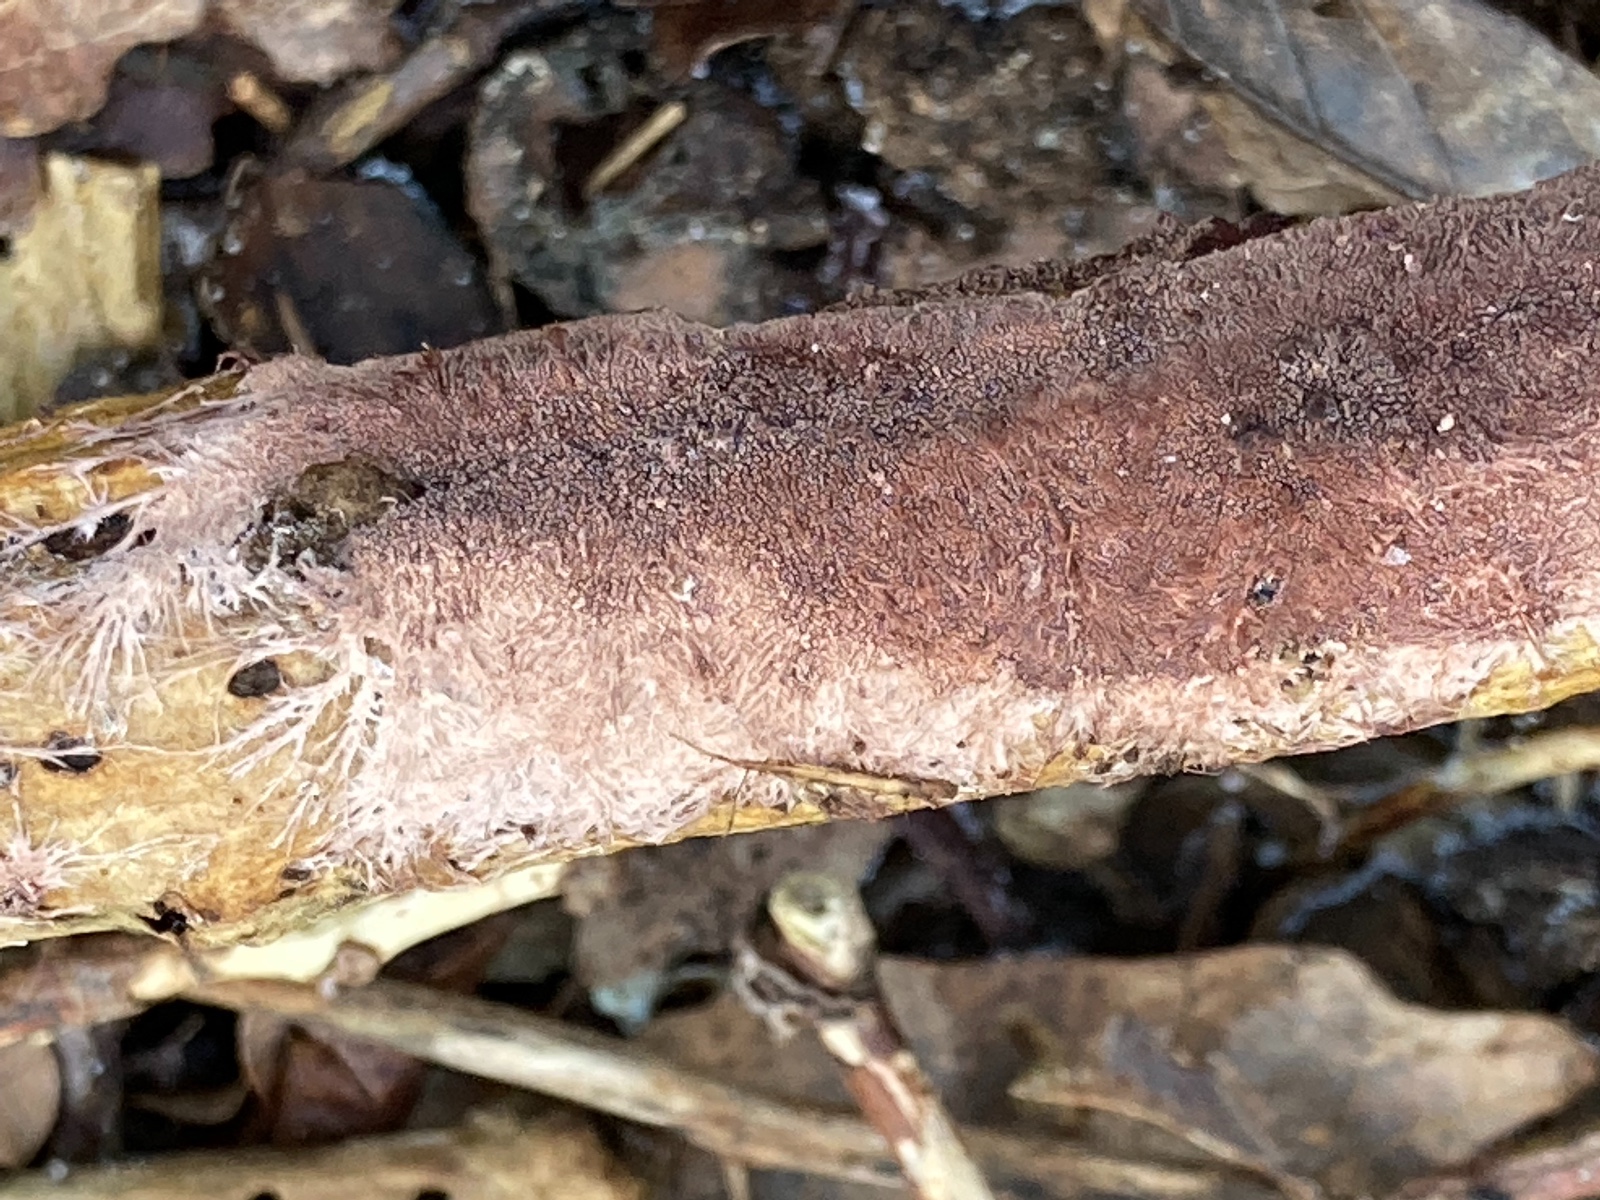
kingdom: Fungi
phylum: Basidiomycota
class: Agaricomycetes
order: Polyporales
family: Steccherinaceae
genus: Steccherinum
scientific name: Steccherinum fimbriatum
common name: trådet skønpig
